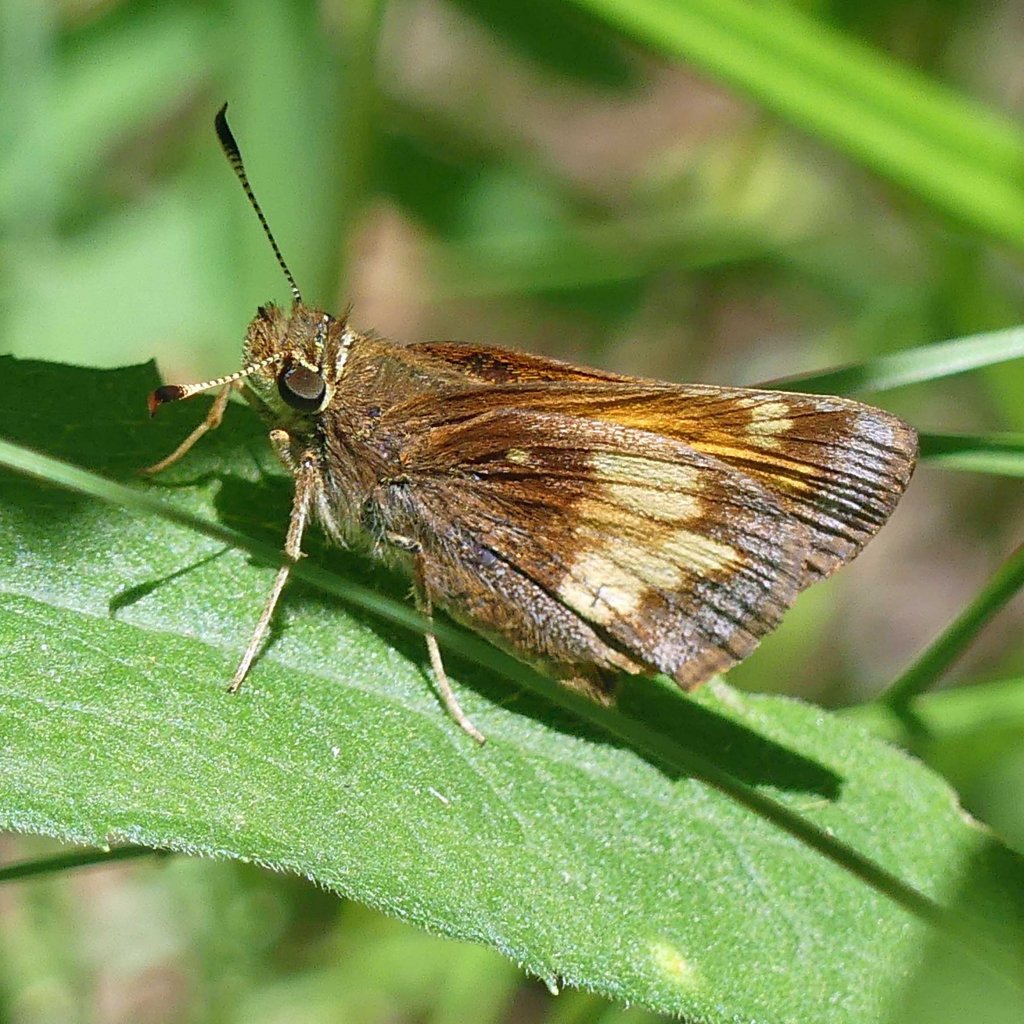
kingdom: Animalia
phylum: Arthropoda
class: Insecta
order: Lepidoptera
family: Hesperiidae
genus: Lon
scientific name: Lon hobomok
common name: Hobomok Skipper
